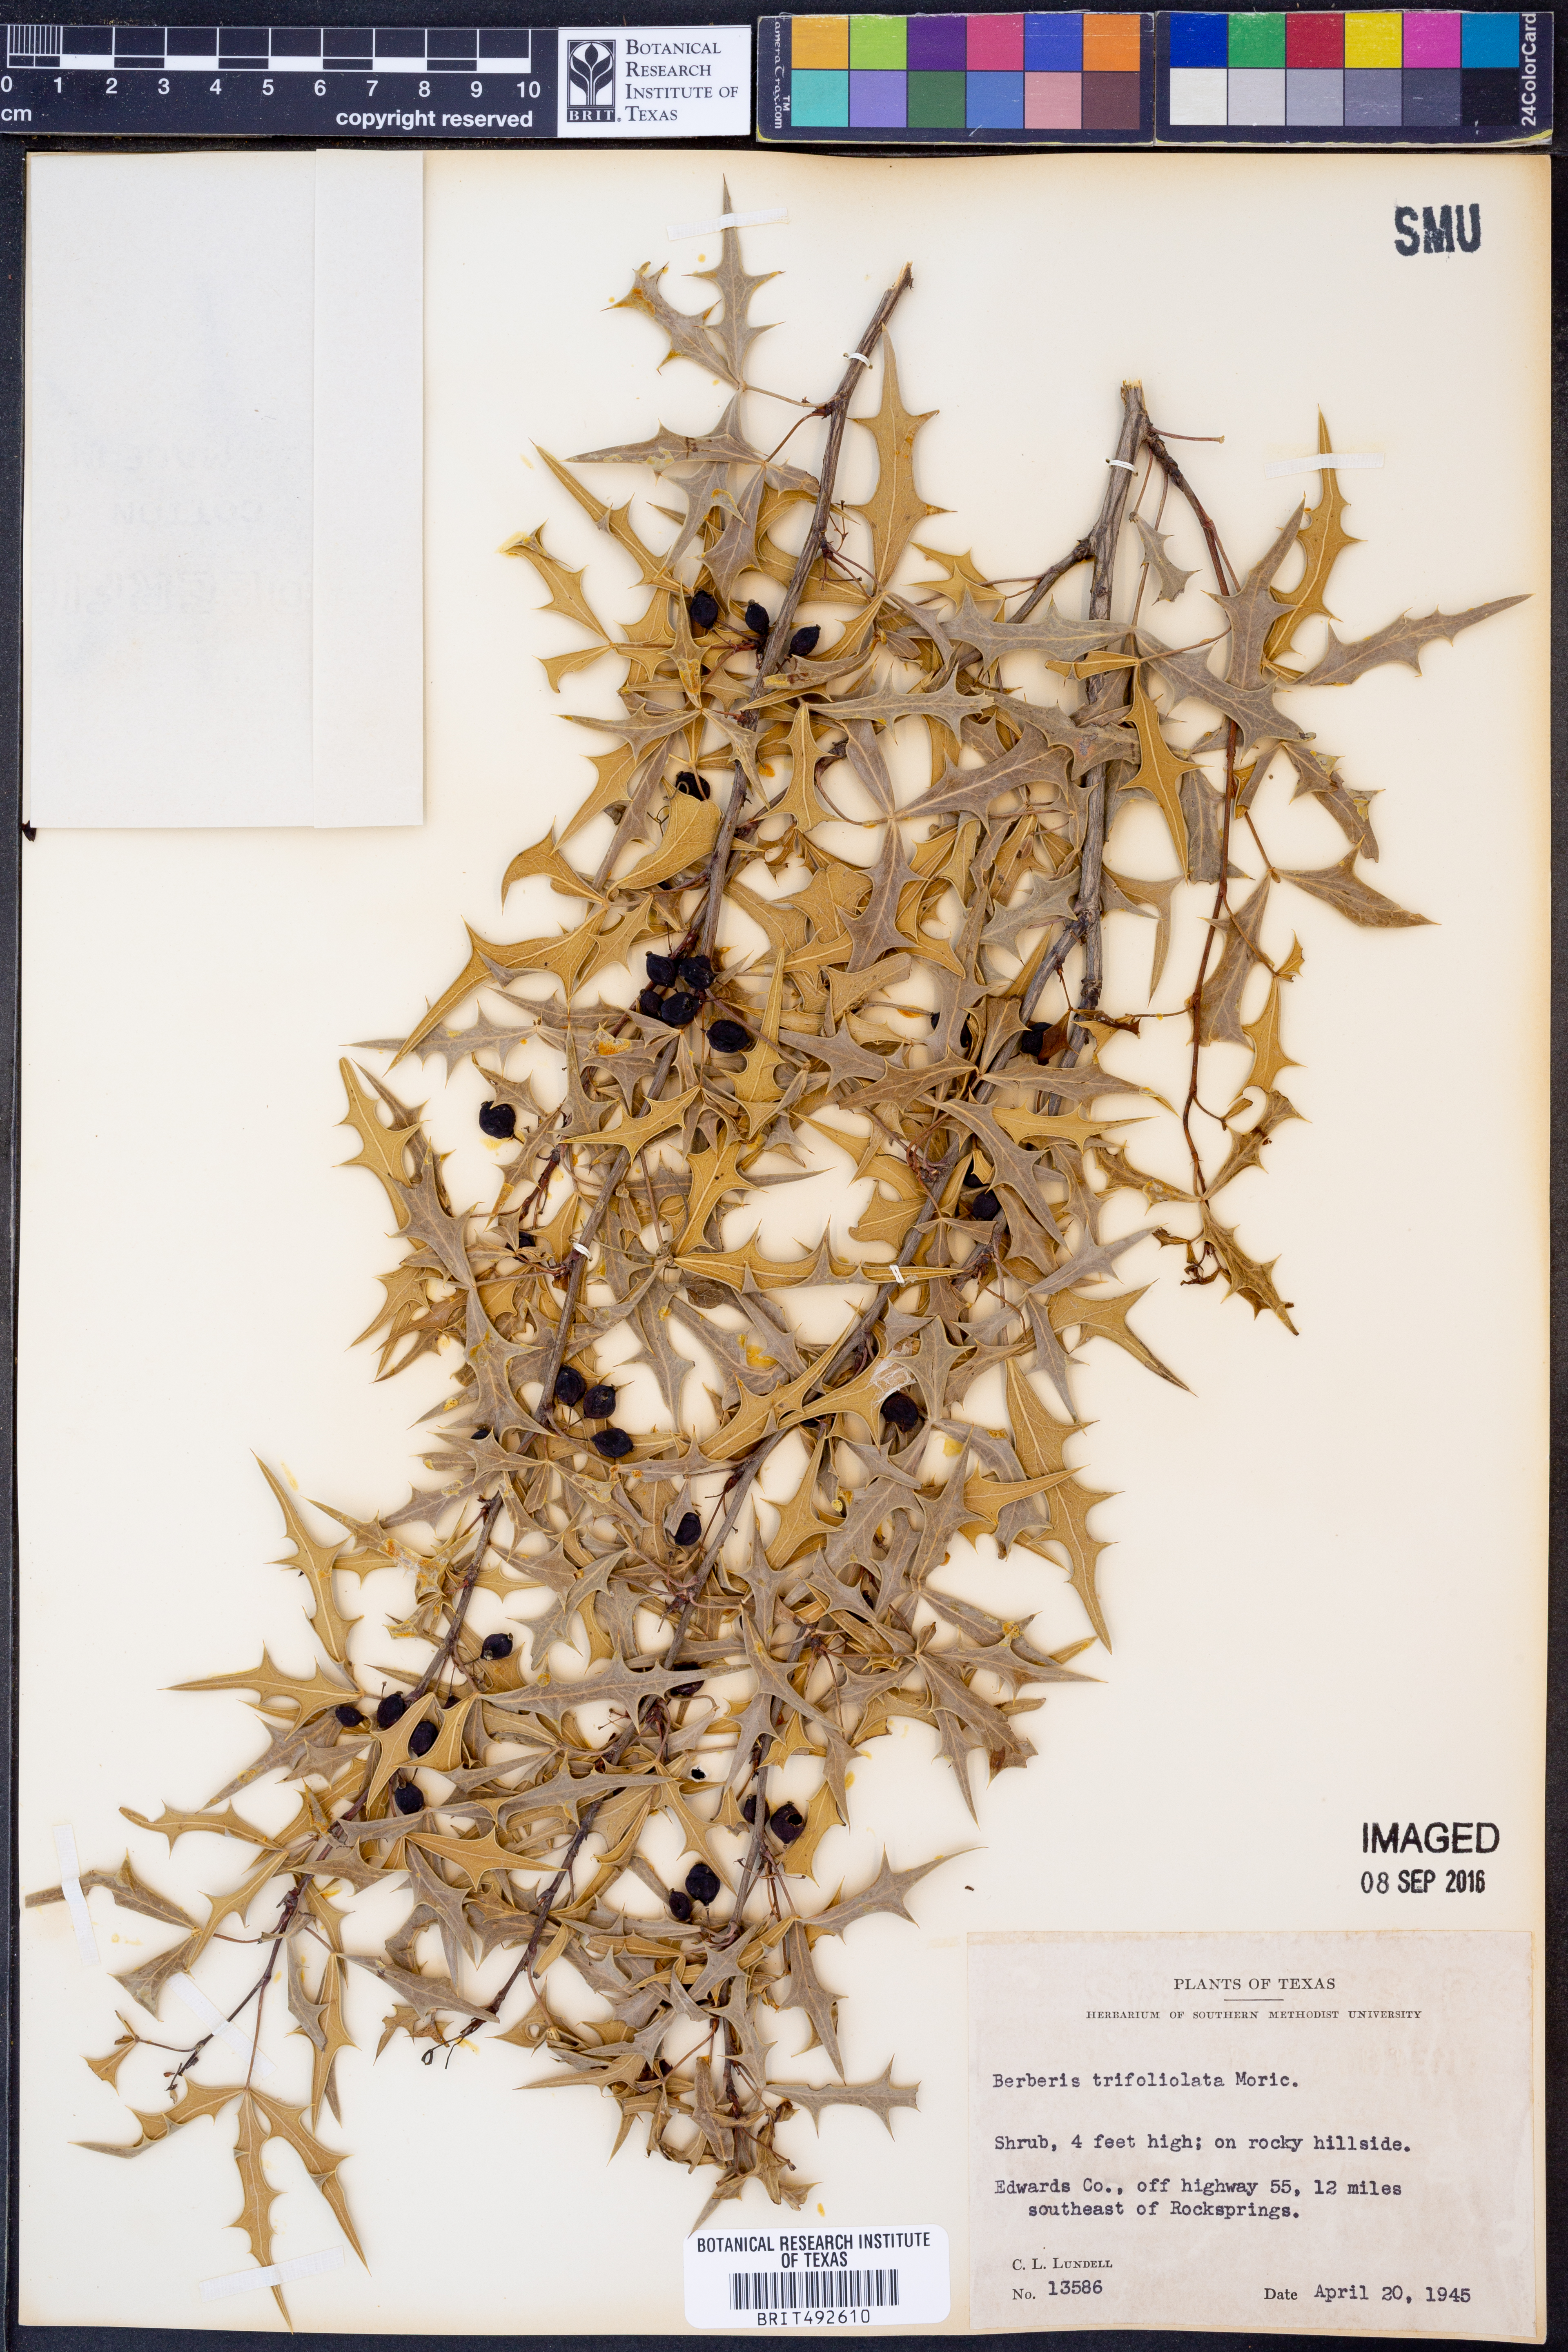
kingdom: Plantae
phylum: Tracheophyta
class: Magnoliopsida
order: Ranunculales
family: Berberidaceae
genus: Alloberberis
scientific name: Alloberberis trifoliolata
